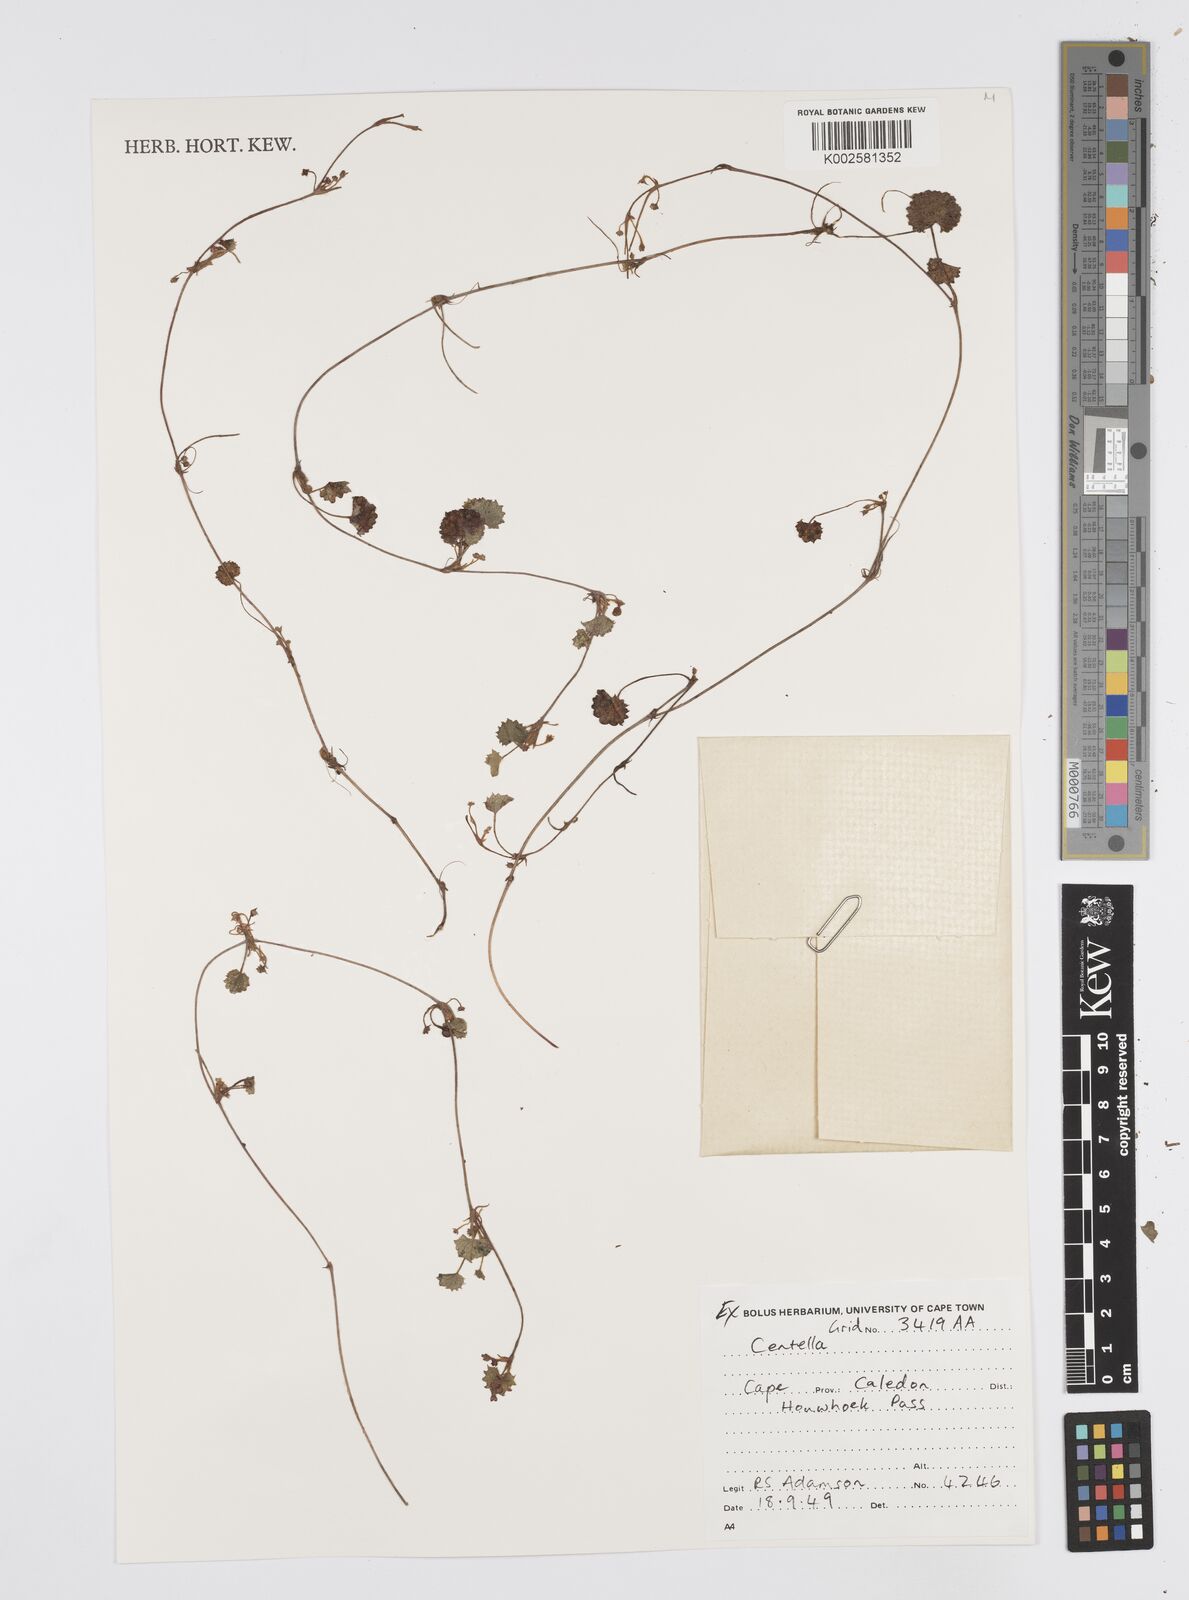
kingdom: Plantae
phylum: Tracheophyta
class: Magnoliopsida
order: Apiales
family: Apiaceae
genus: Centella
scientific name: Centella
